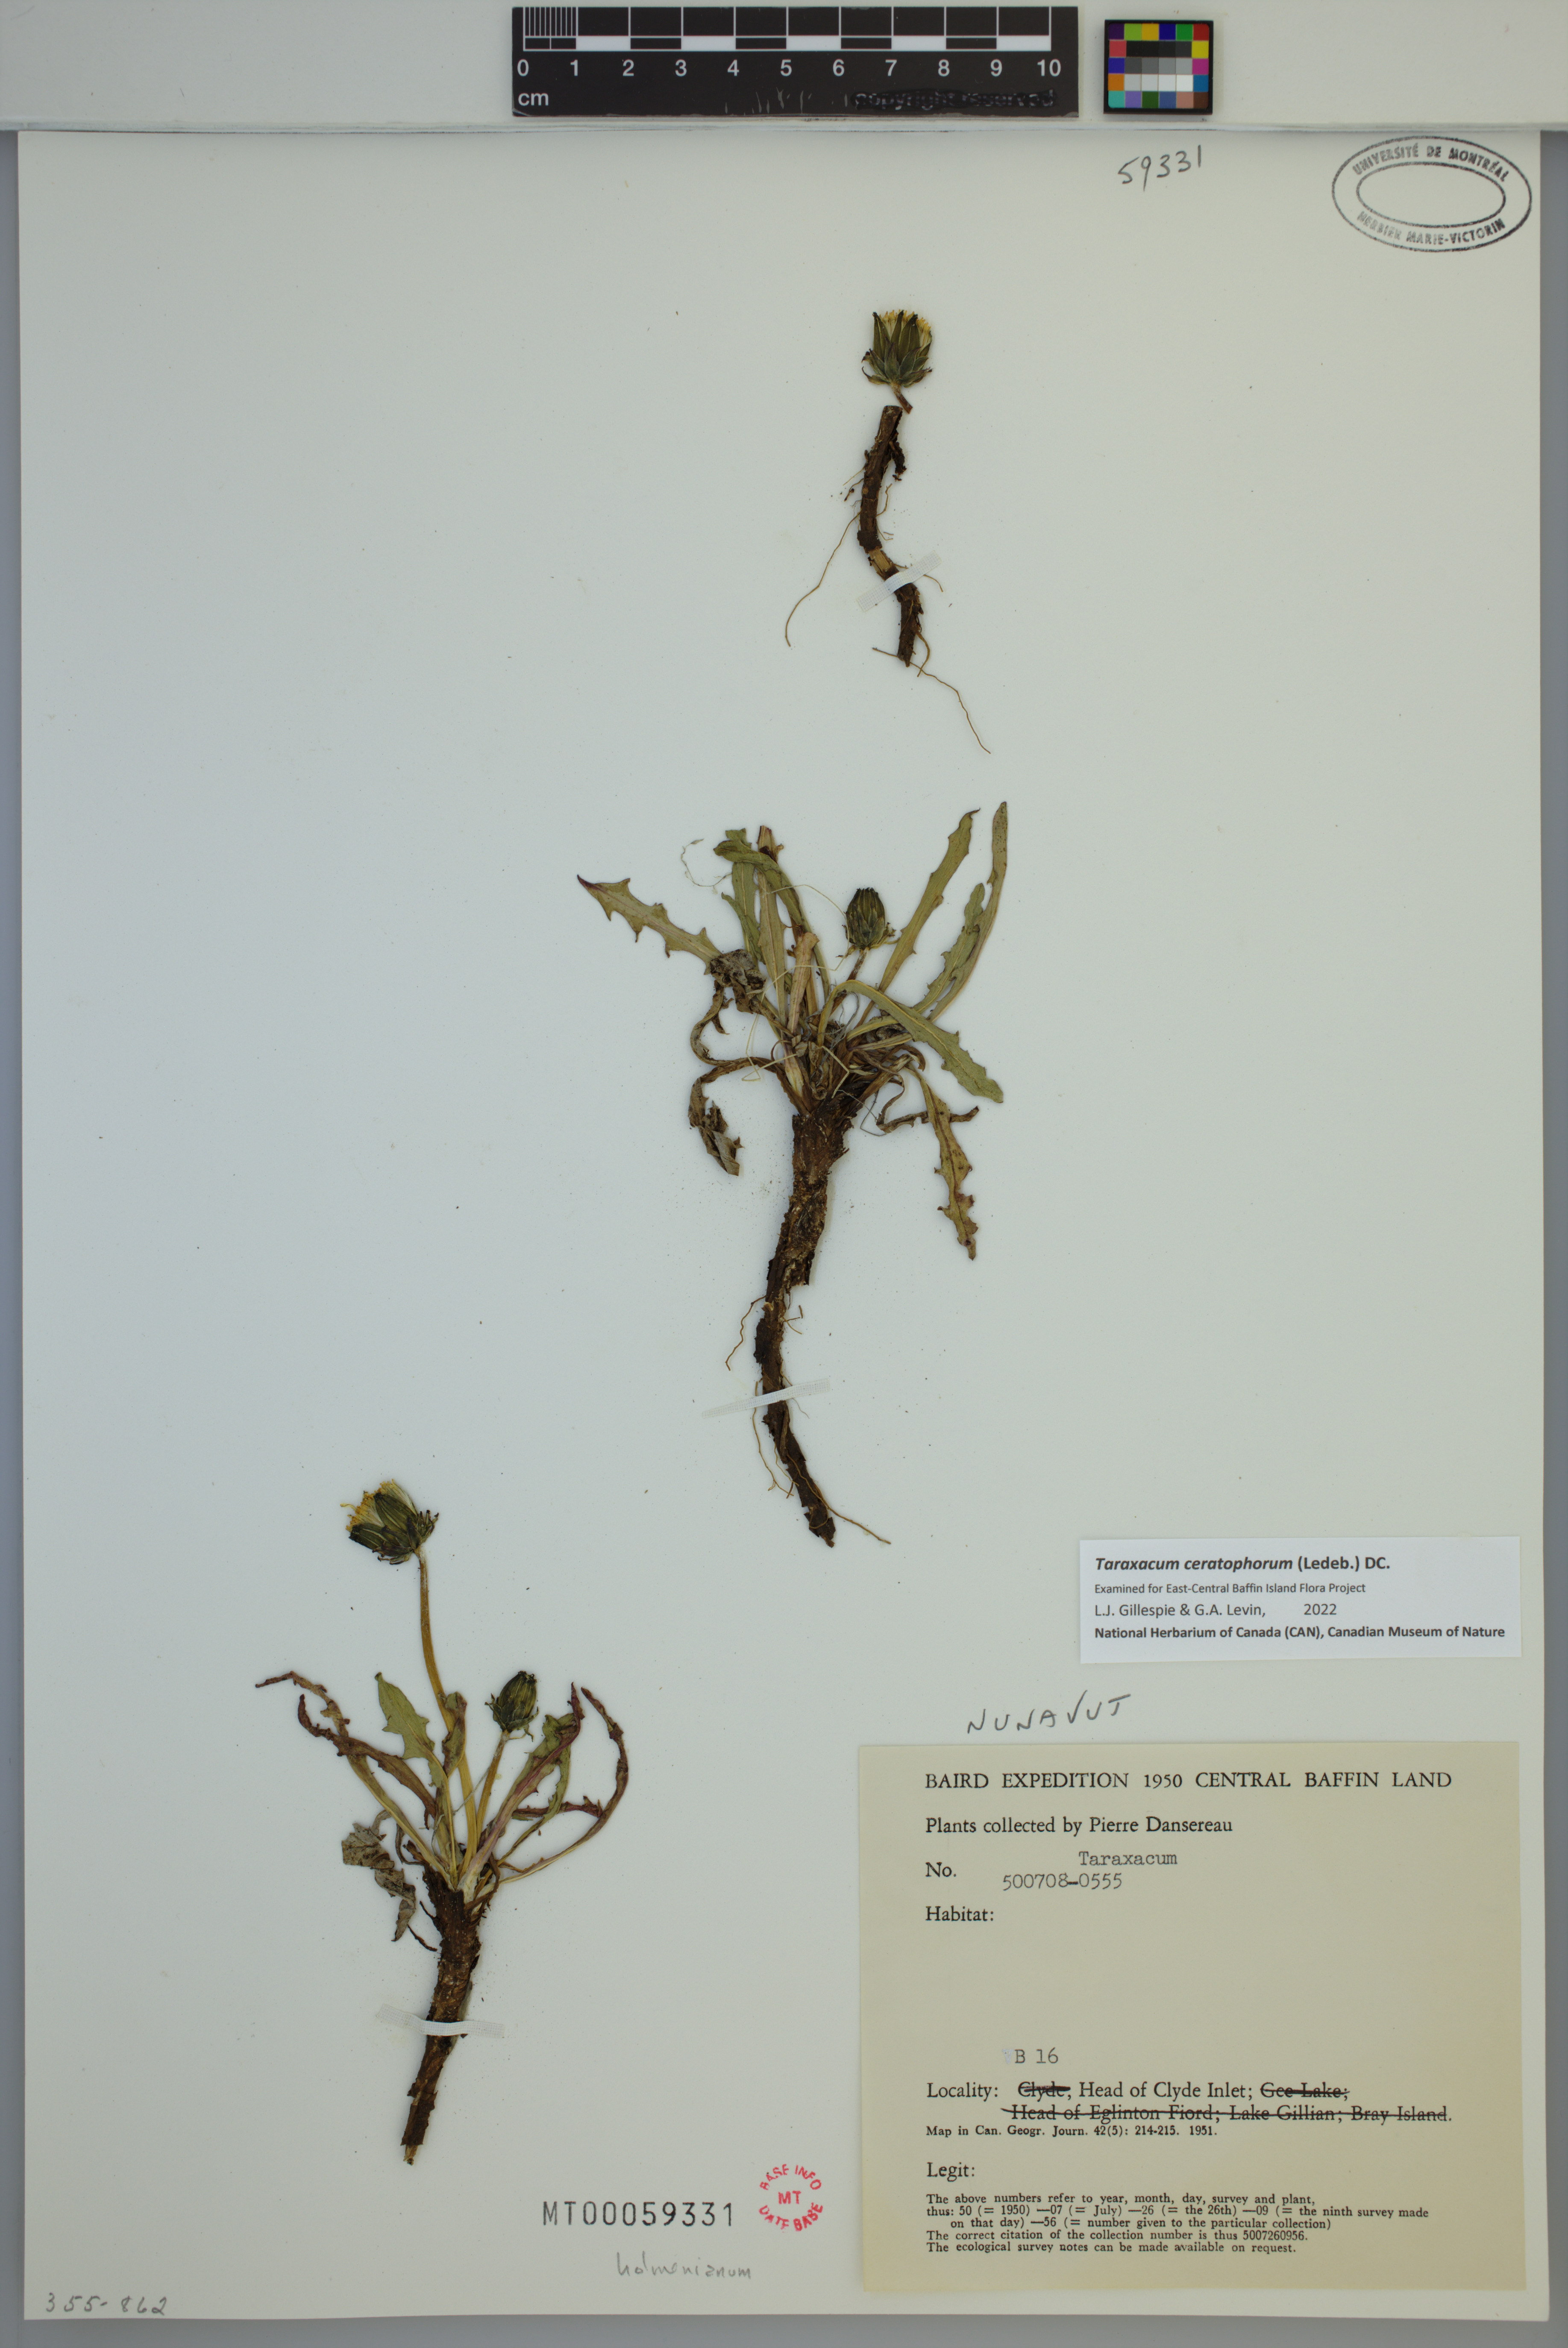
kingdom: Plantae
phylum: Tracheophyta
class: Magnoliopsida
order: Asterales
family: Asteraceae
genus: Taraxacum
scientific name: Taraxacum ceratophorum
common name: Horn-bearing dandelion
